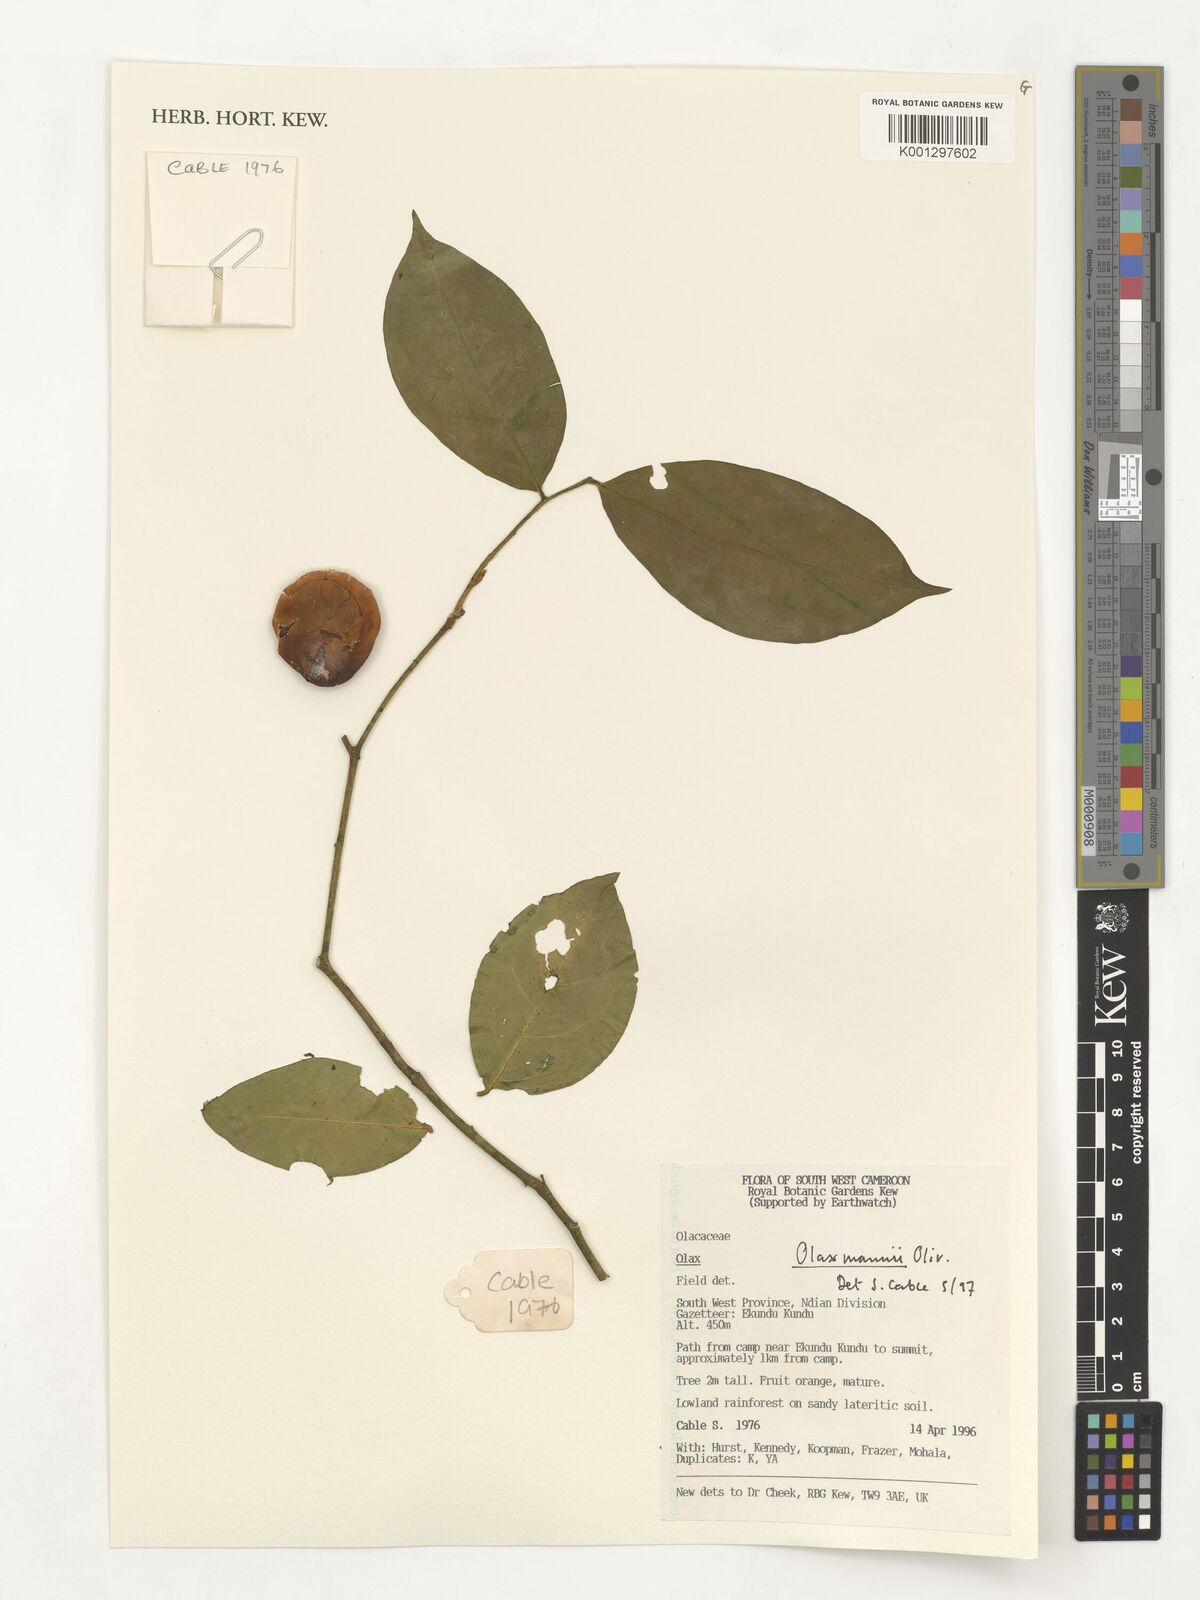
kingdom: Plantae
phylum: Tracheophyta
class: Magnoliopsida
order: Santalales
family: Olacaceae
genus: Olax
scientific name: Olax mannii
